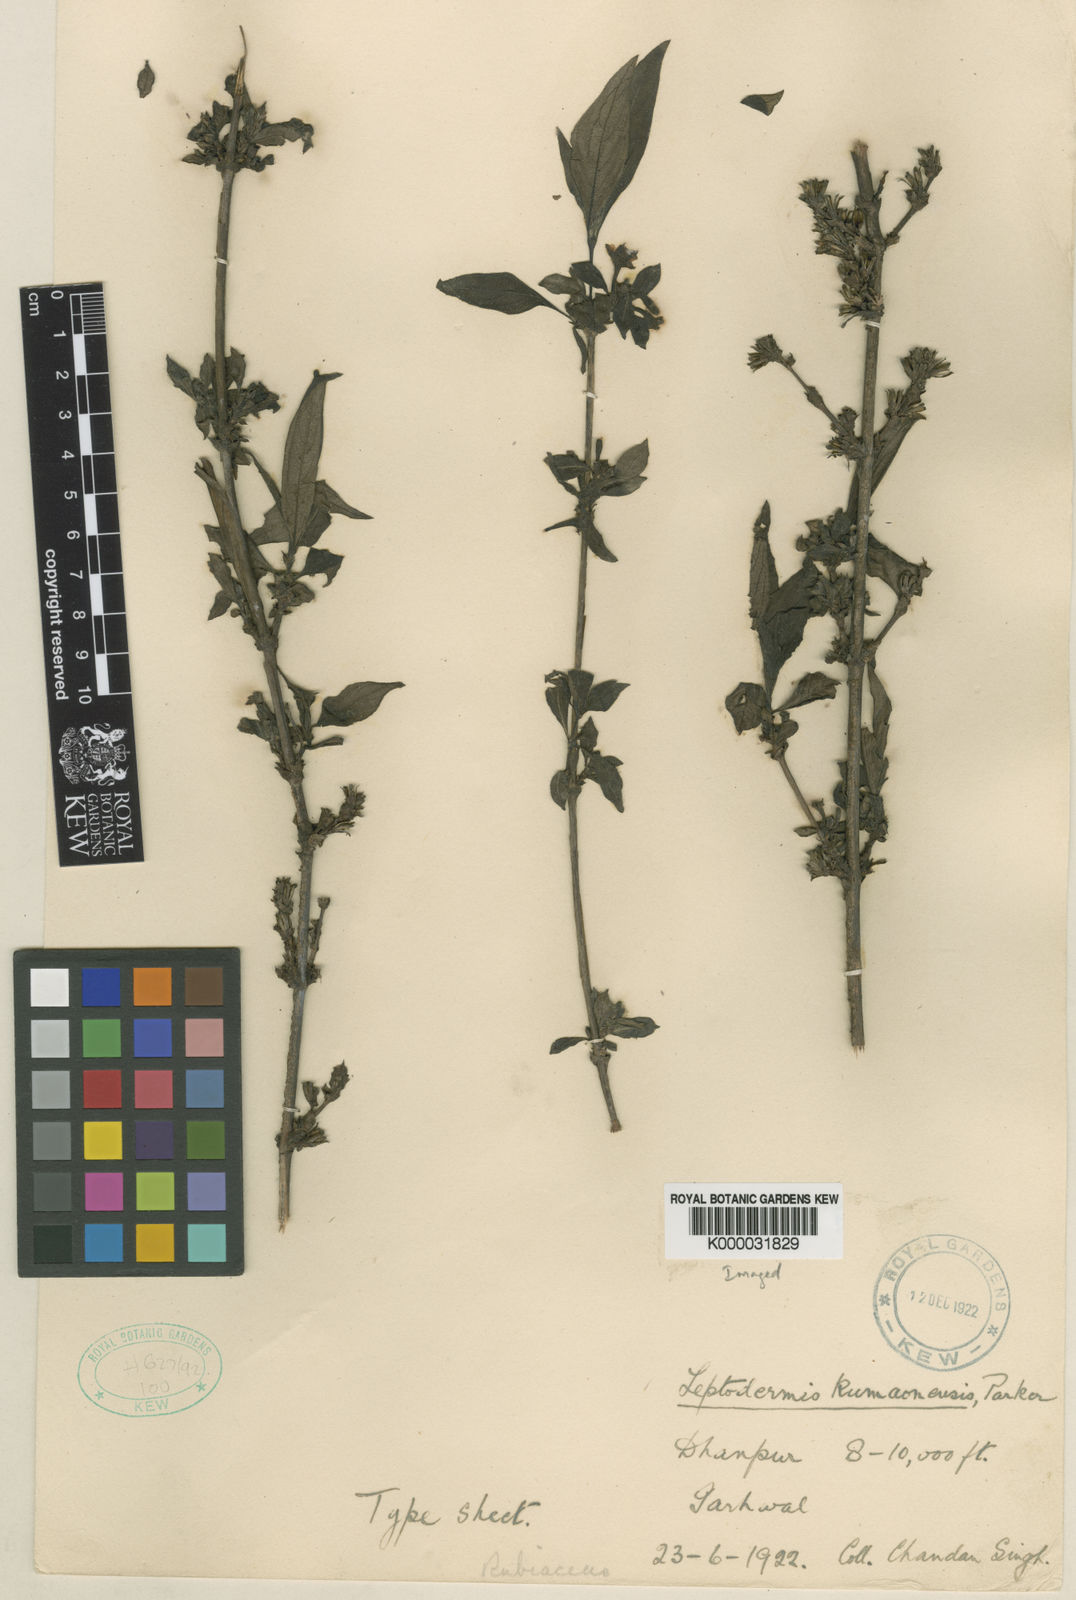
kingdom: Plantae
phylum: Tracheophyta
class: Magnoliopsida
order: Gentianales
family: Rubiaceae
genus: Leptodermis
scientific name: Leptodermis kumaonensis
